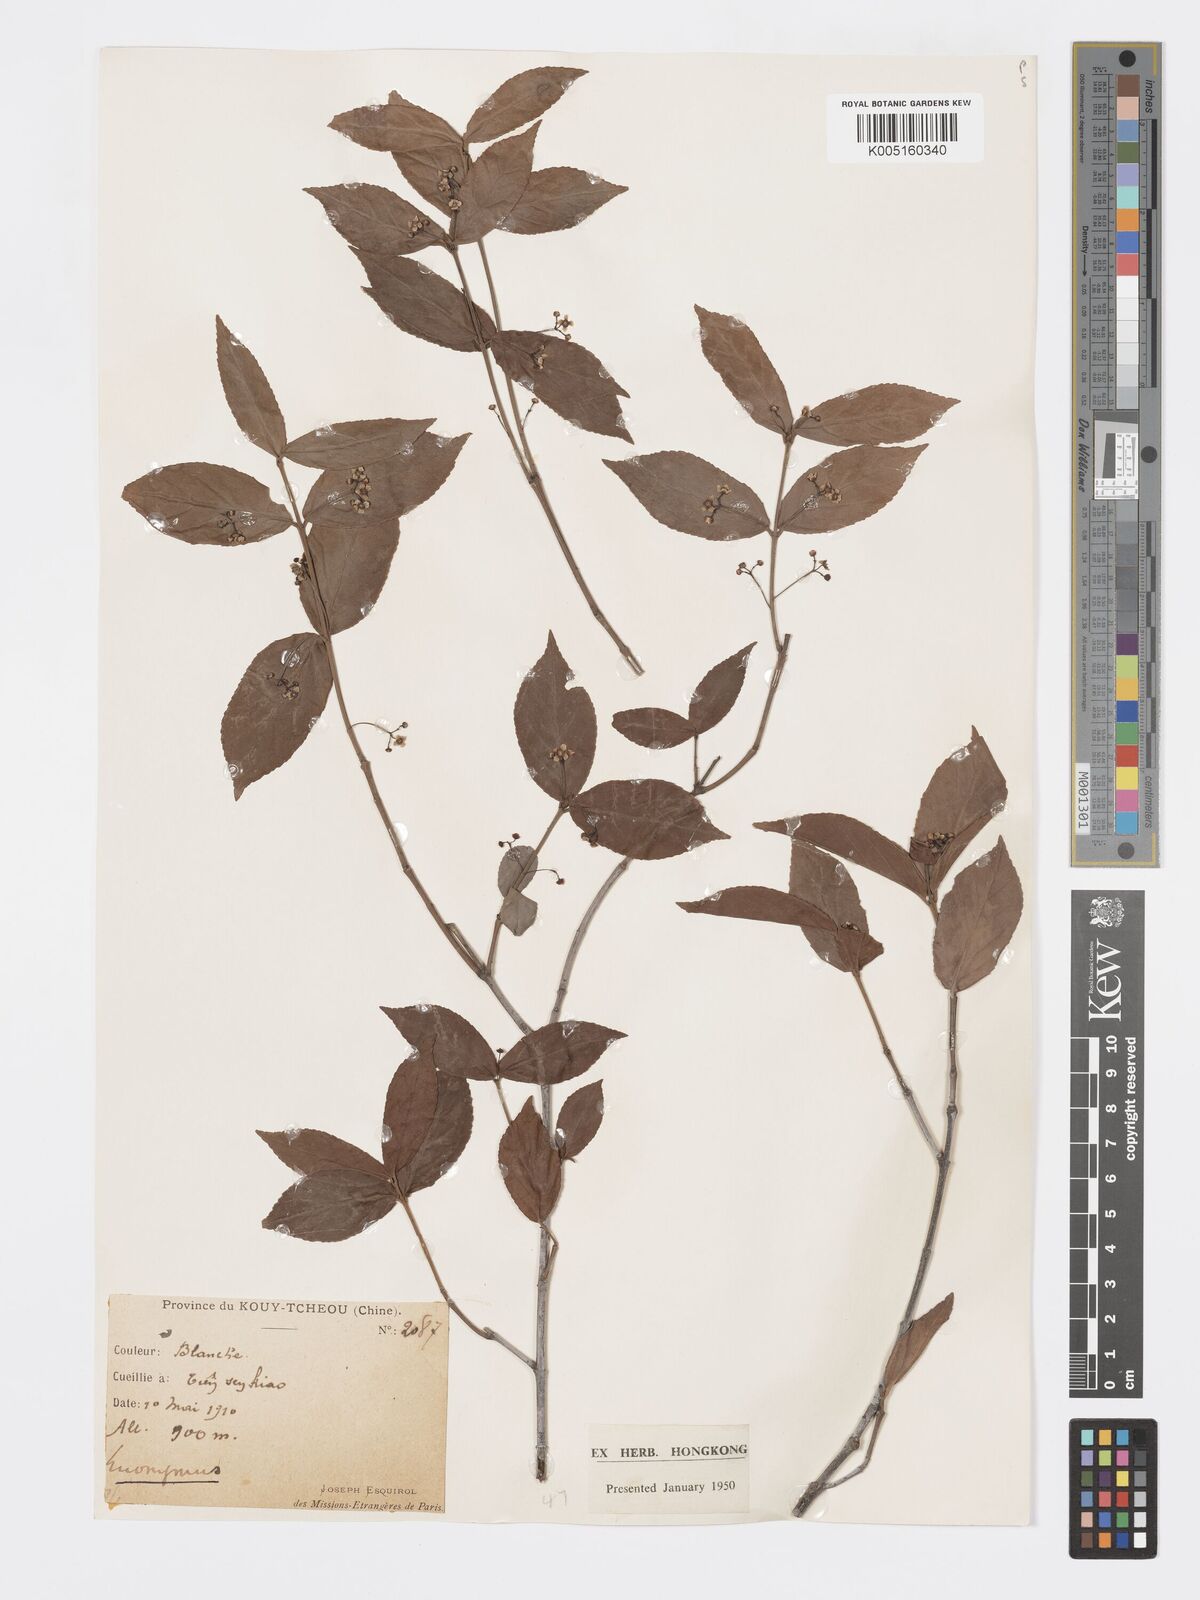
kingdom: Plantae
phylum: Tracheophyta
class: Magnoliopsida
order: Celastrales
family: Celastraceae
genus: Euonymus
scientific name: Euonymus
